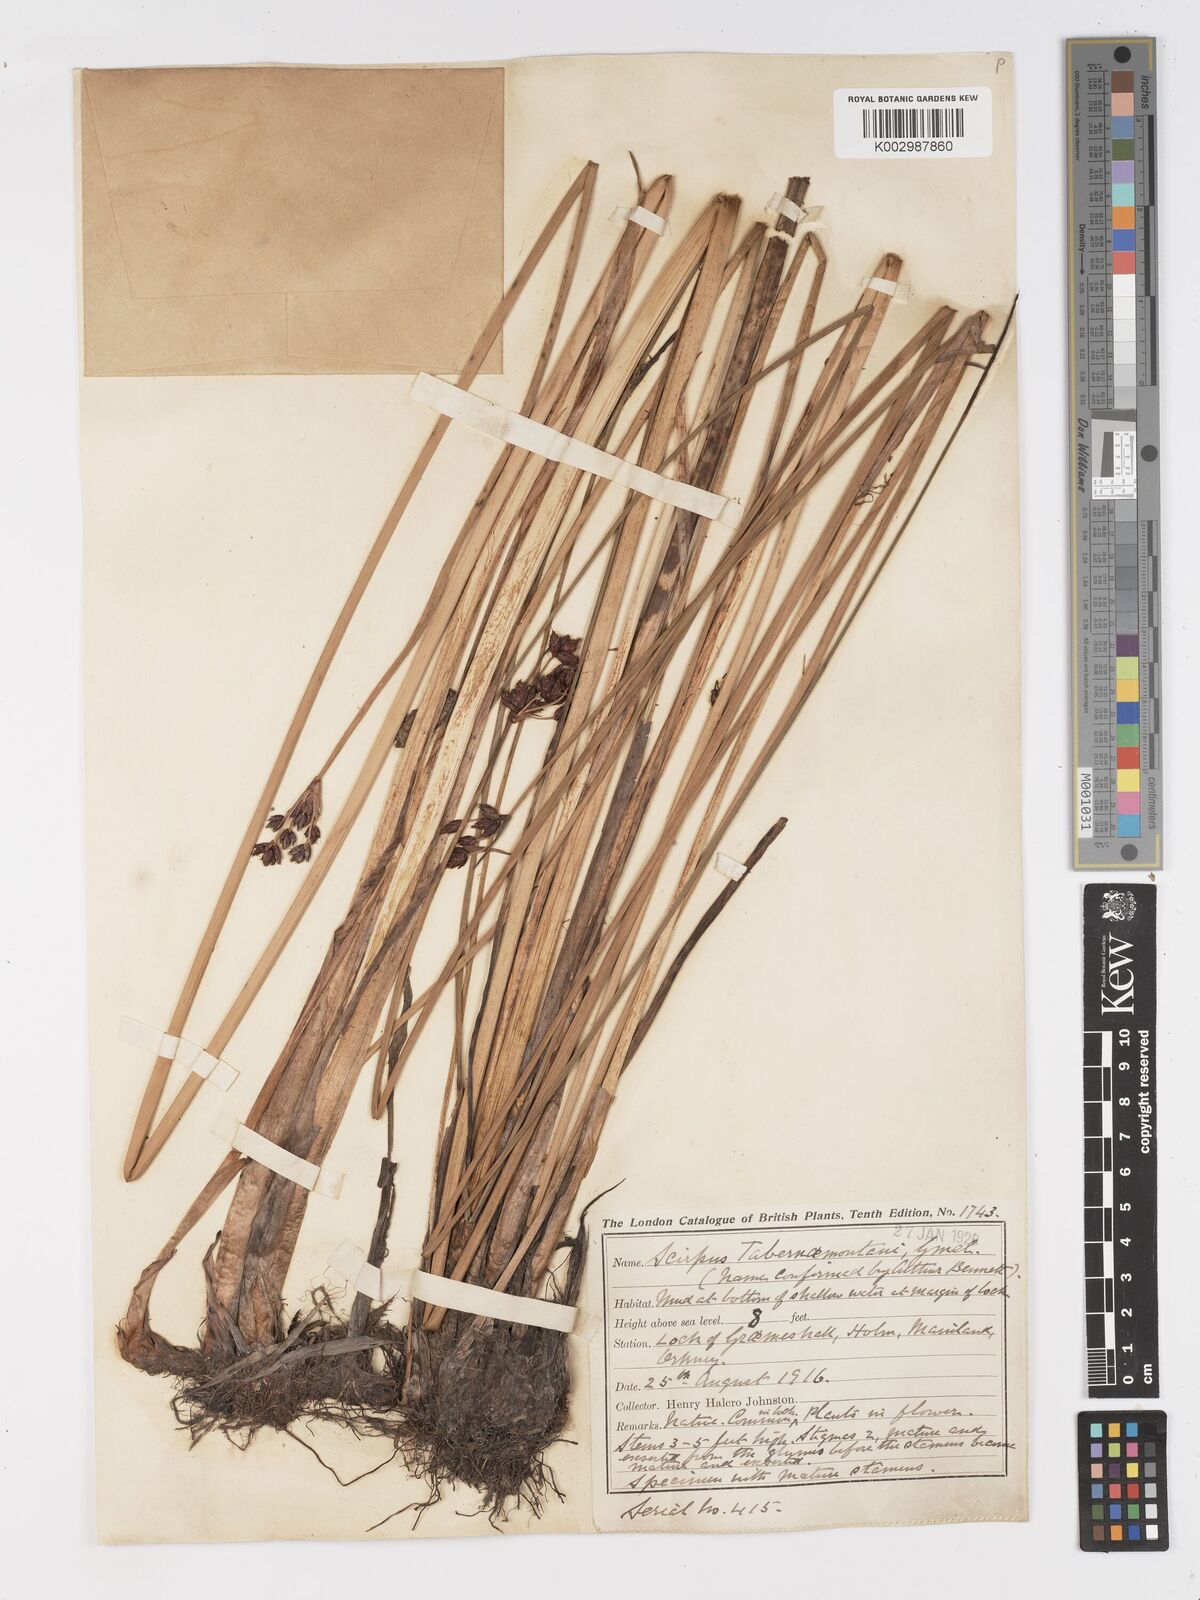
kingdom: Plantae
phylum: Tracheophyta
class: Liliopsida
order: Poales
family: Cyperaceae
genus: Schoenoplectus
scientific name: Schoenoplectus tabernaemontani
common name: Grey club-rush
